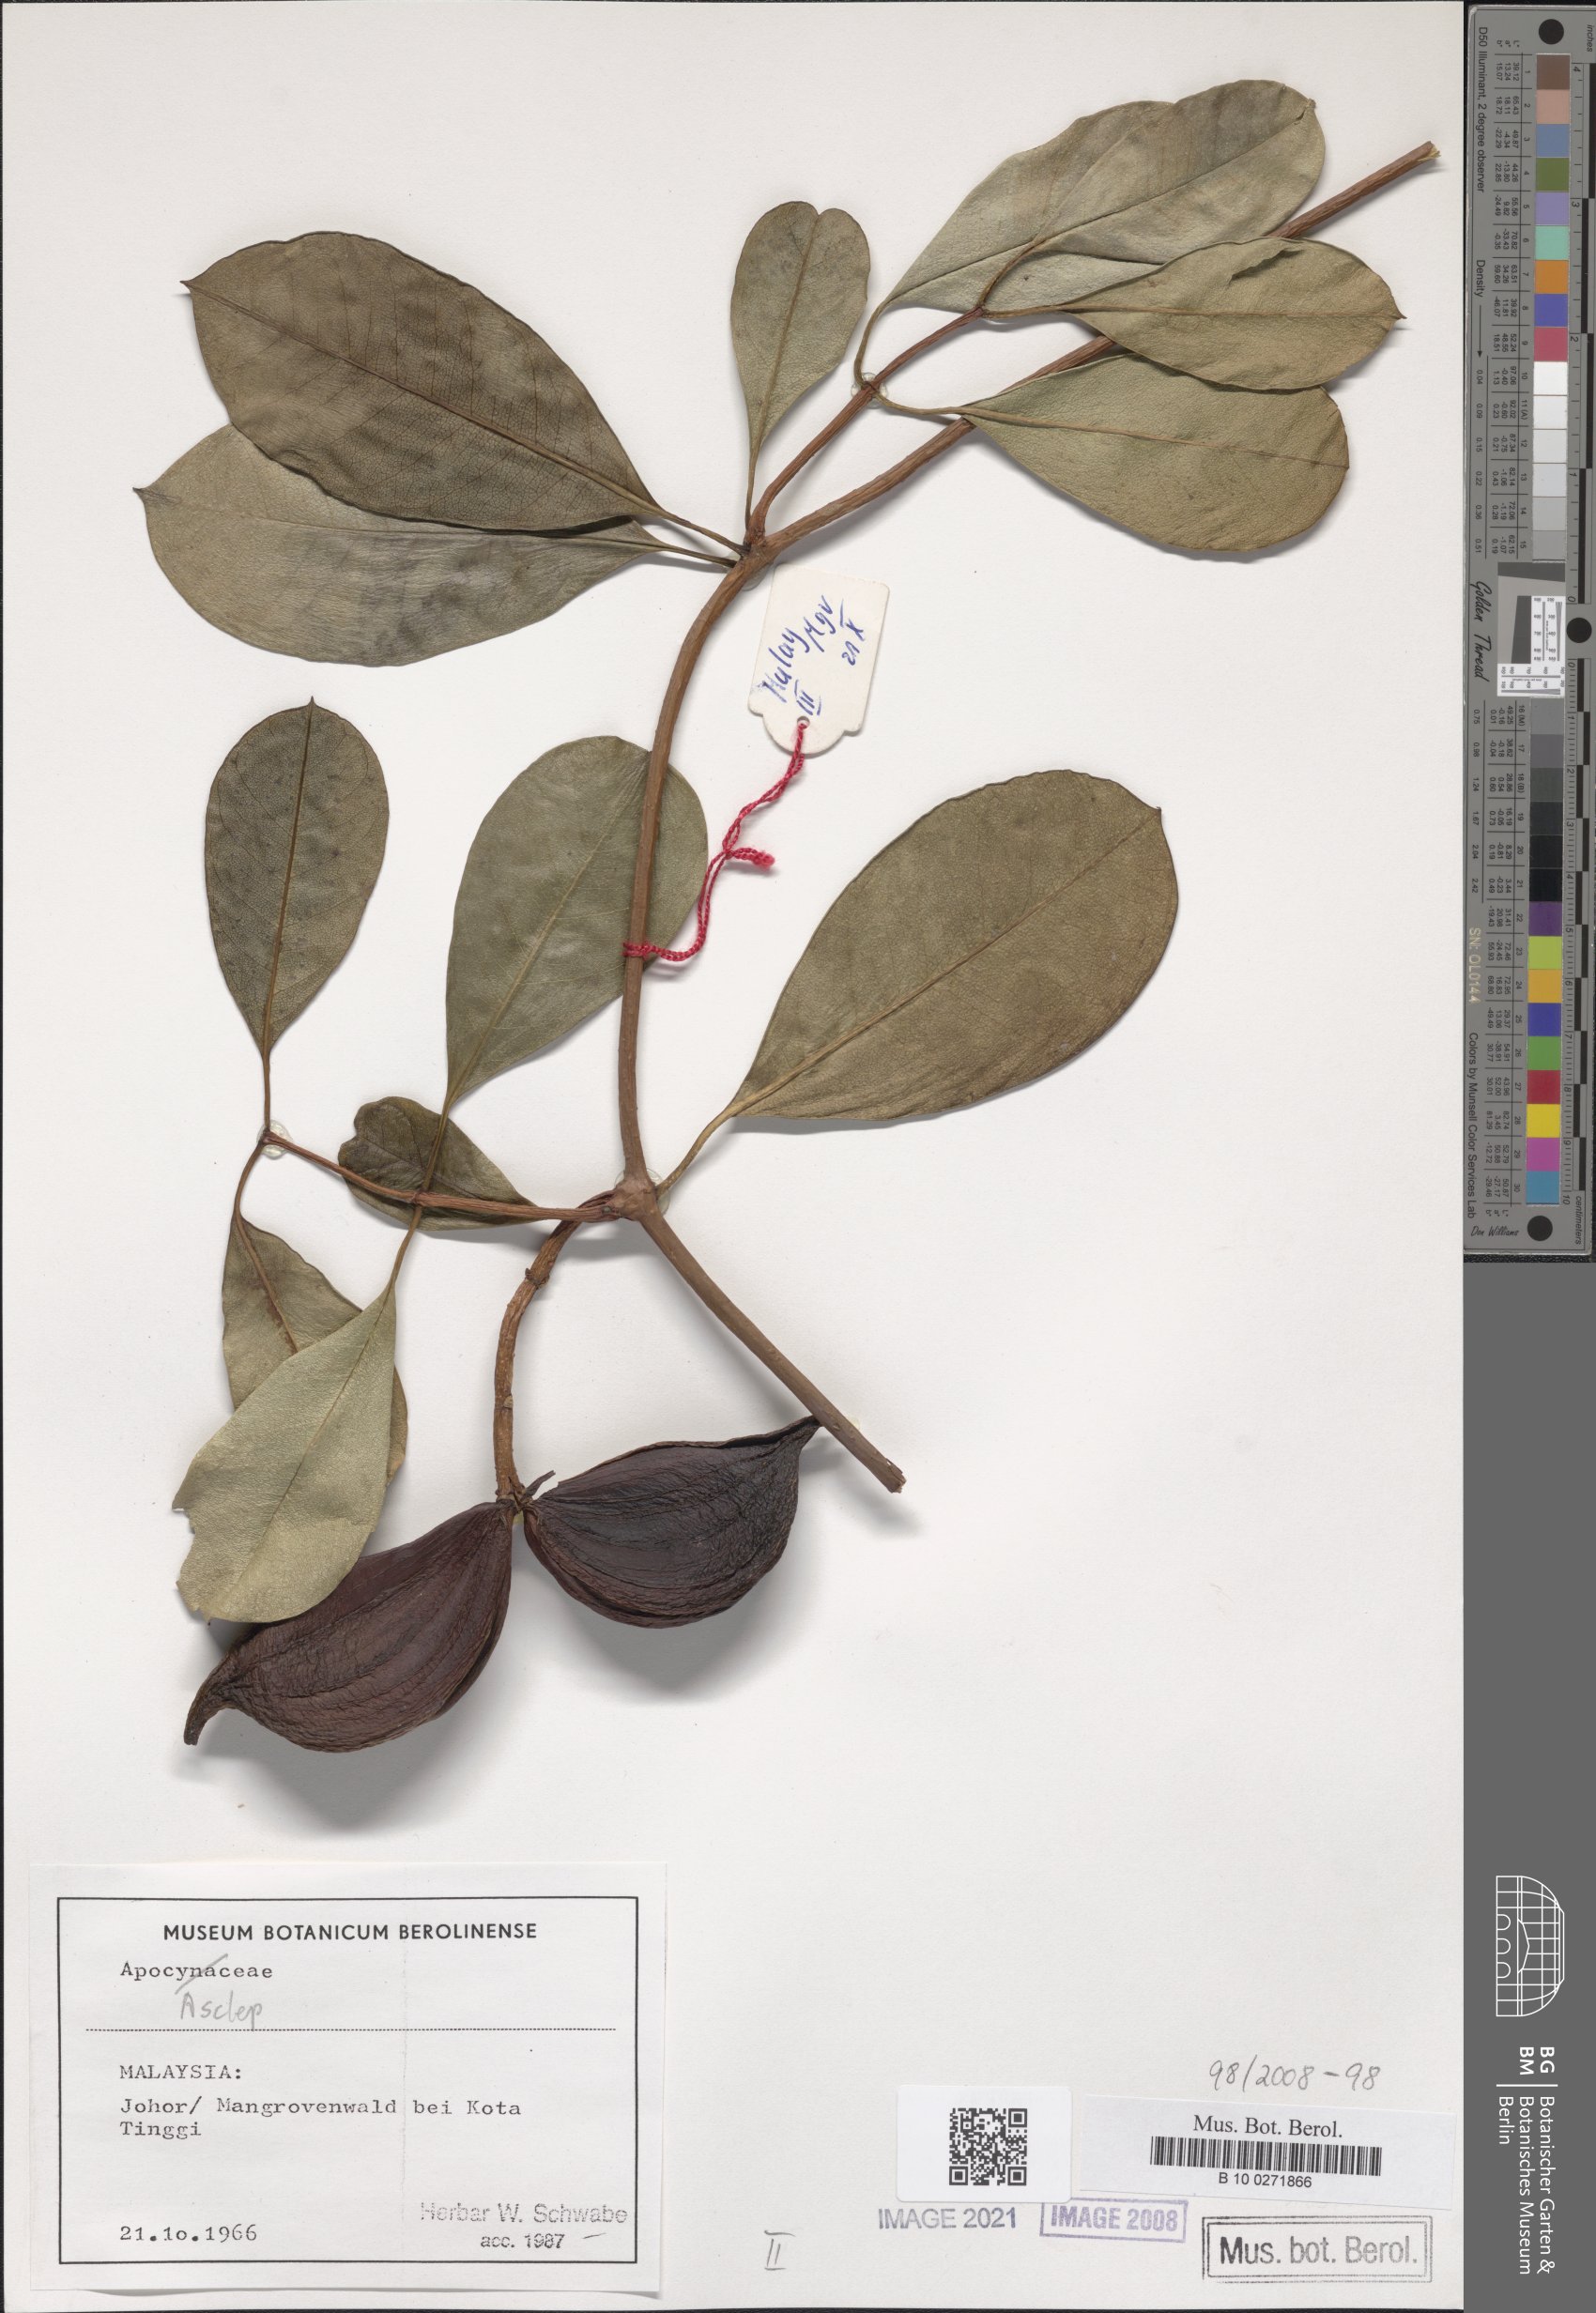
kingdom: Plantae
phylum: Tracheophyta
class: Magnoliopsida
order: Gentianales
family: Asclepiadaceae
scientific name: Asclepiadaceae
